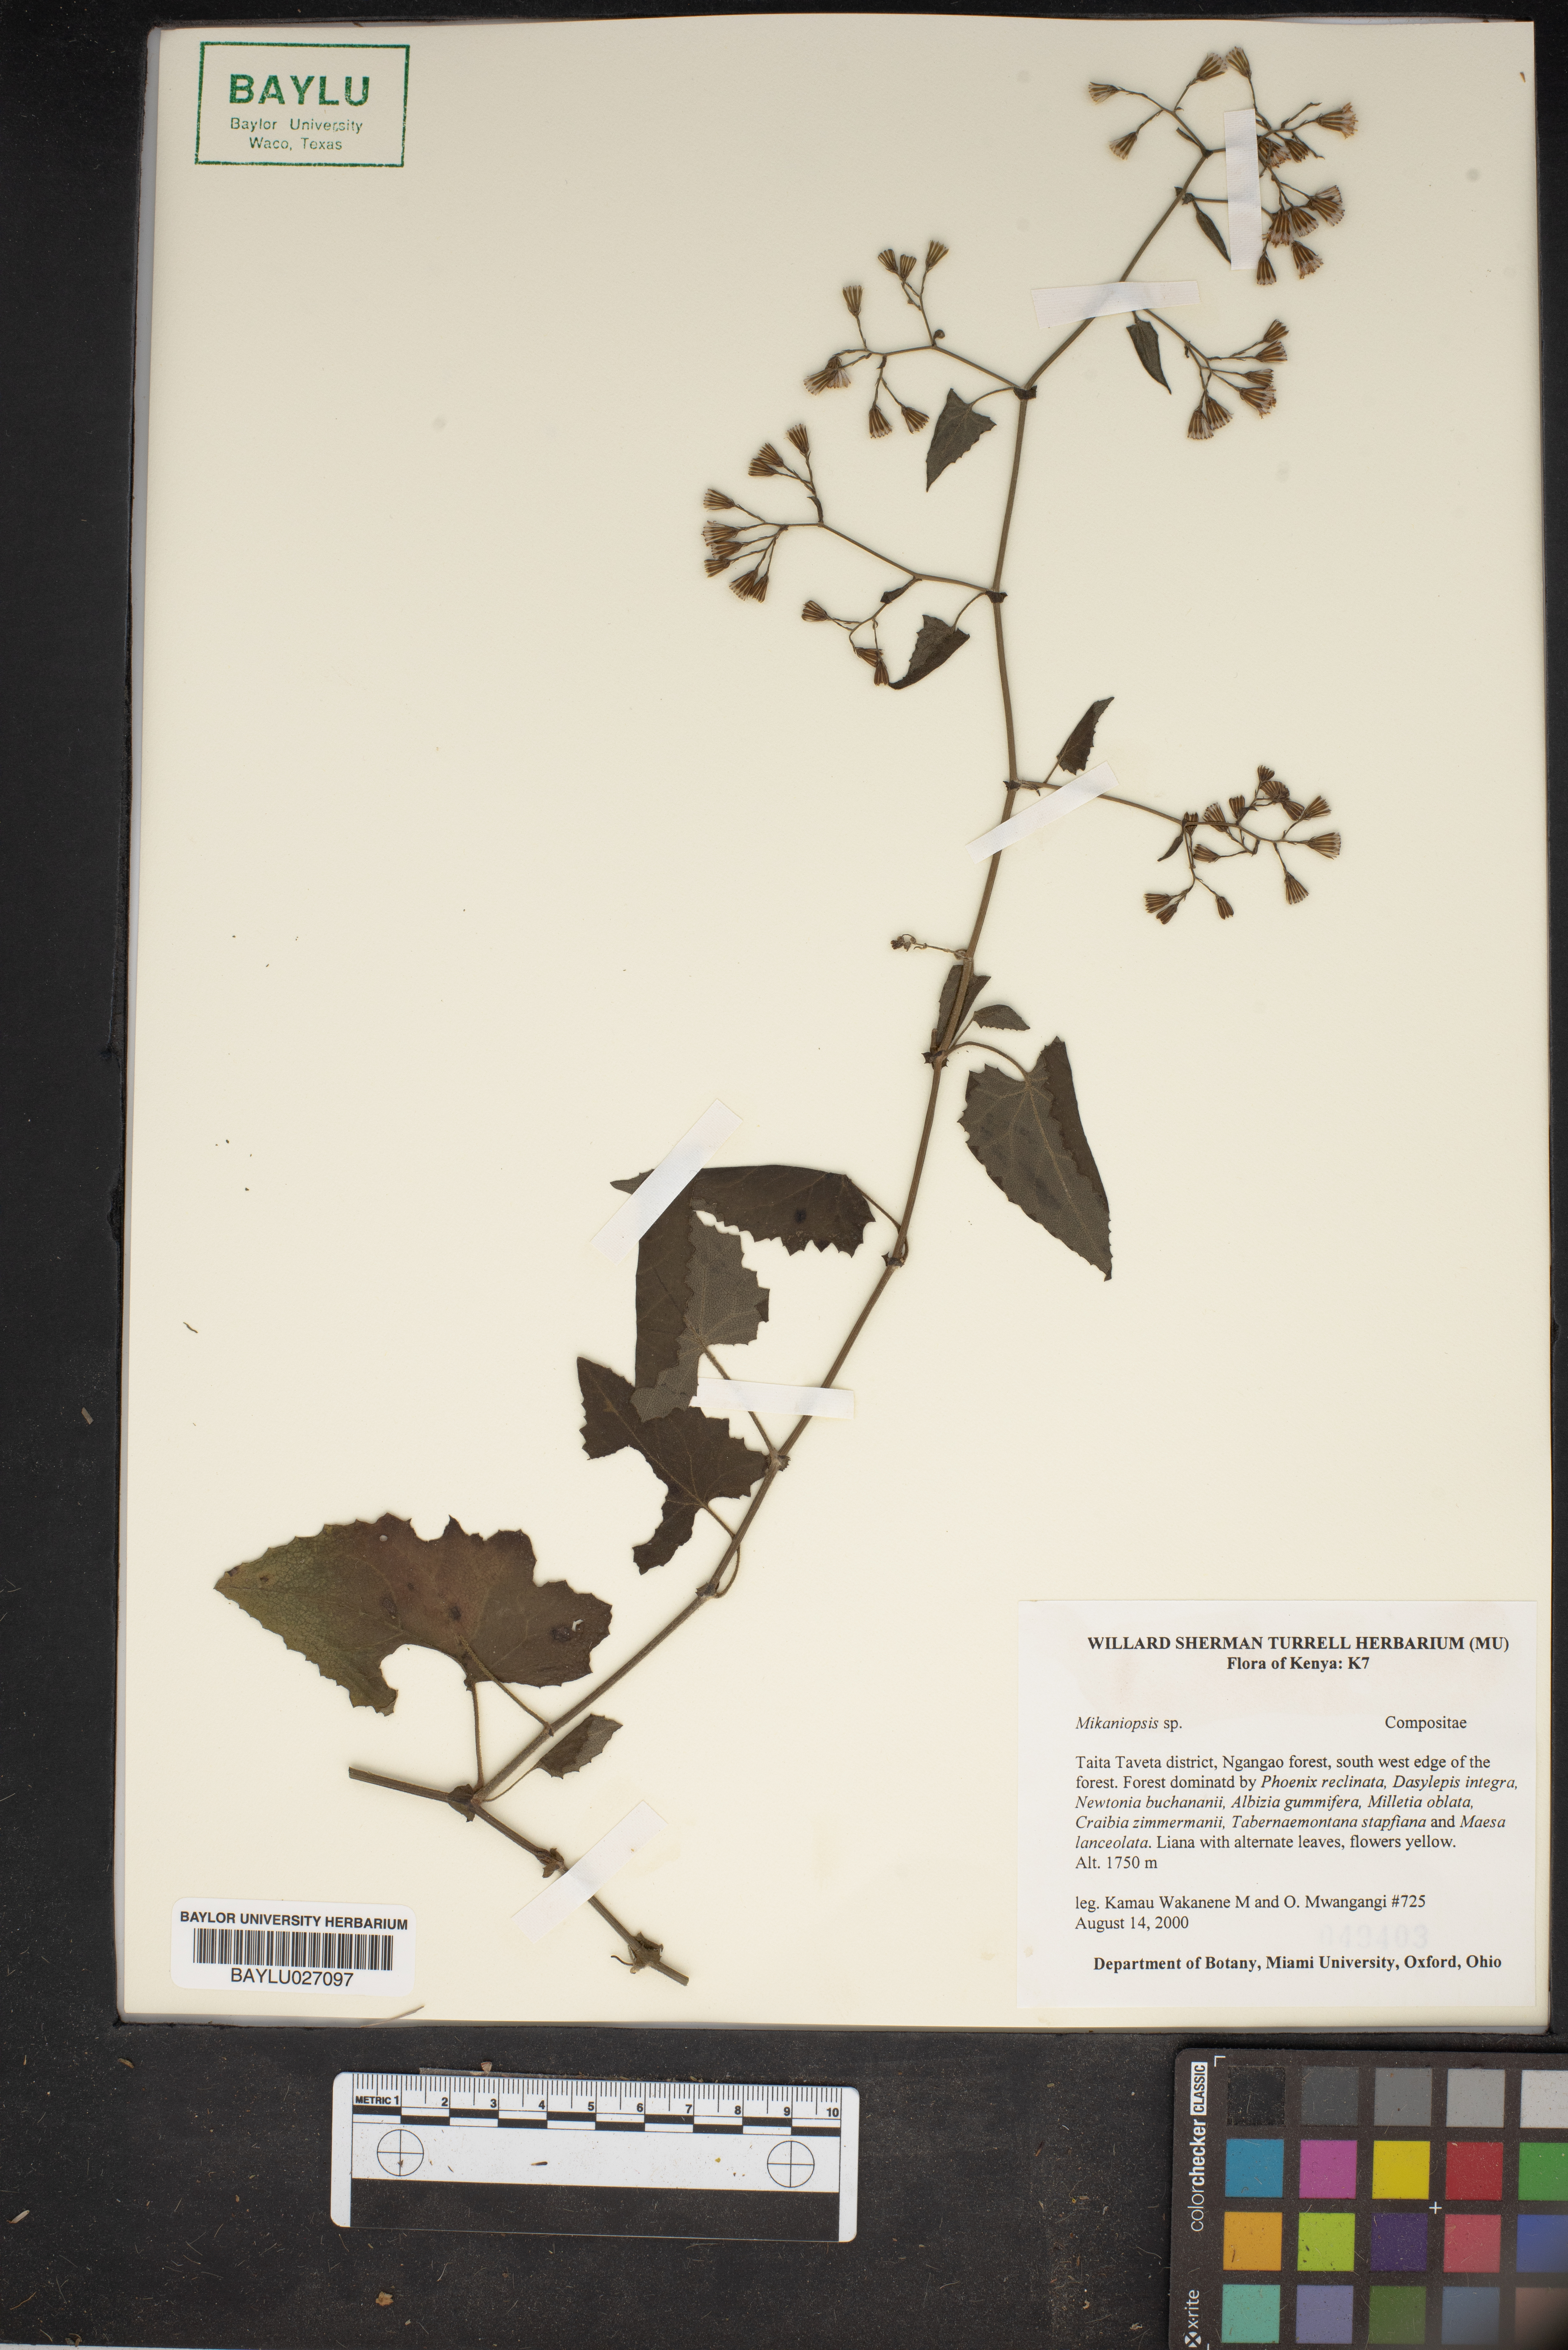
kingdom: Plantae
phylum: Tracheophyta
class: Magnoliopsida
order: Asterales
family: Asteraceae
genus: Mikaniopsis
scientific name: Mikaniopsis
